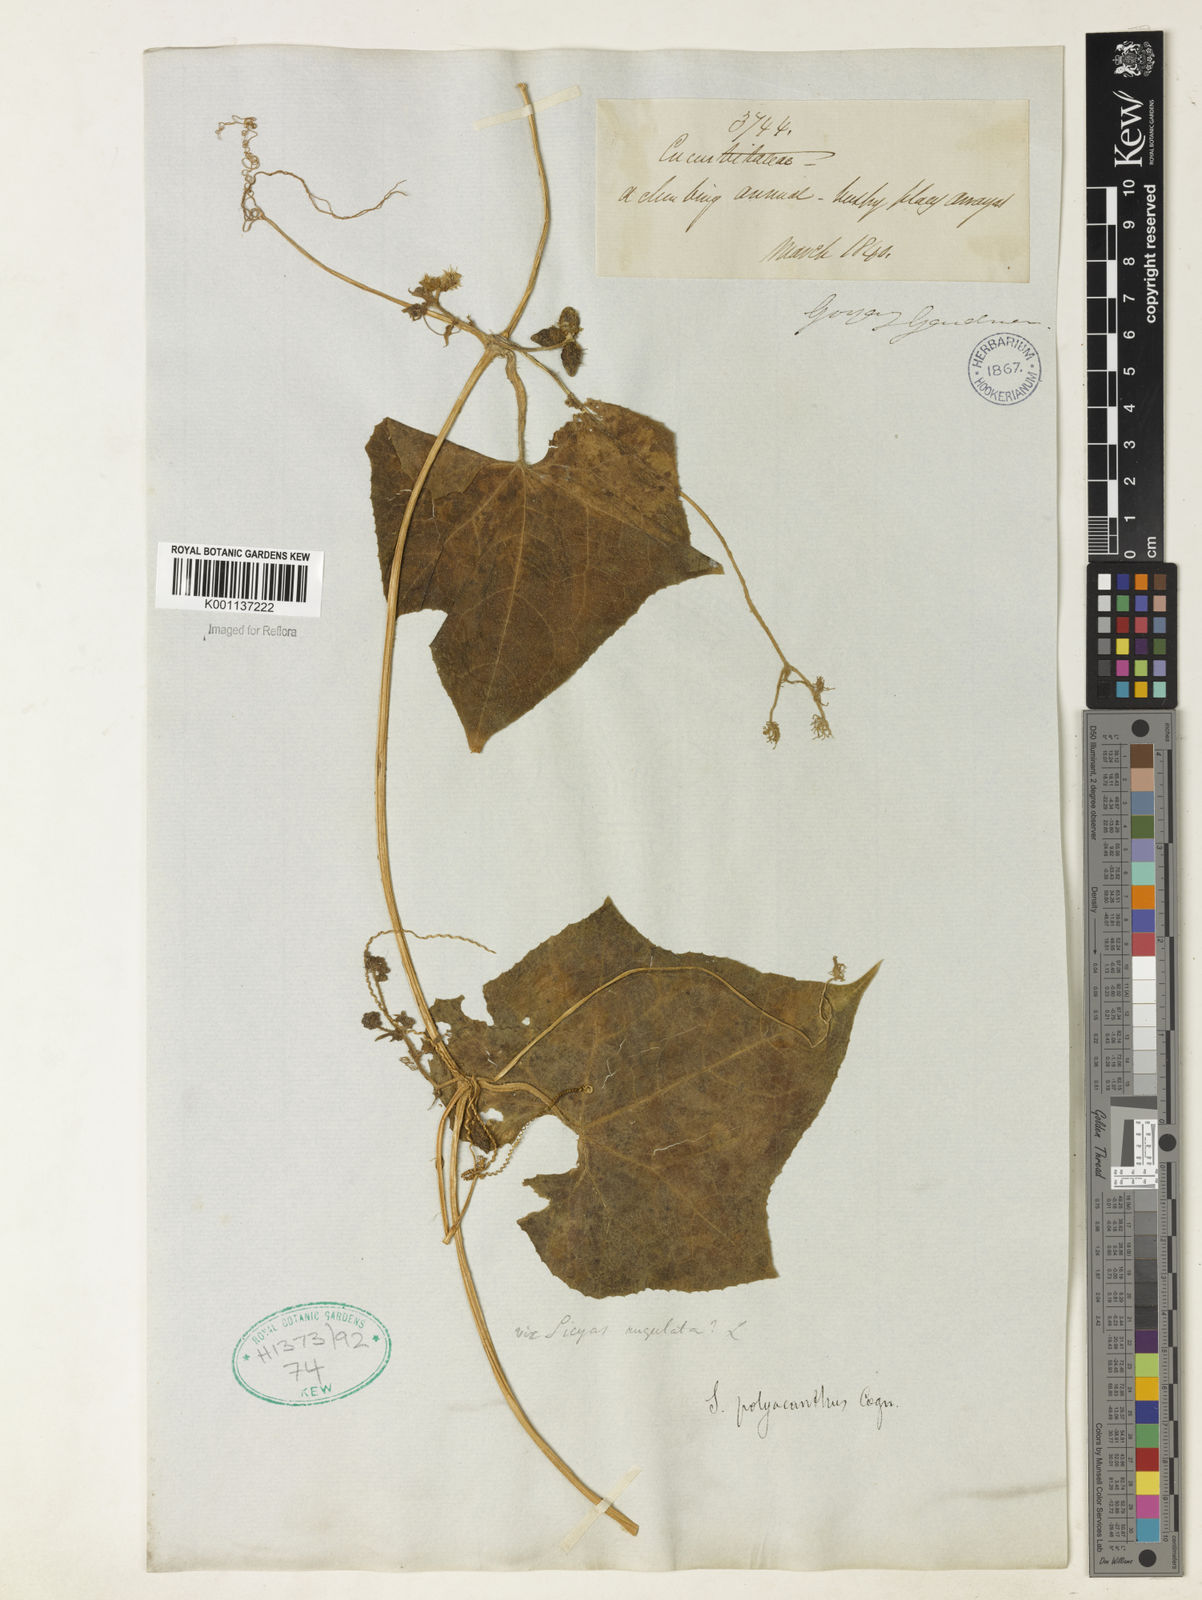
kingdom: Plantae
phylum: Tracheophyta
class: Magnoliopsida
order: Cucurbitales
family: Cucurbitaceae
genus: Sicyos
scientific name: Sicyos polyacanthos
